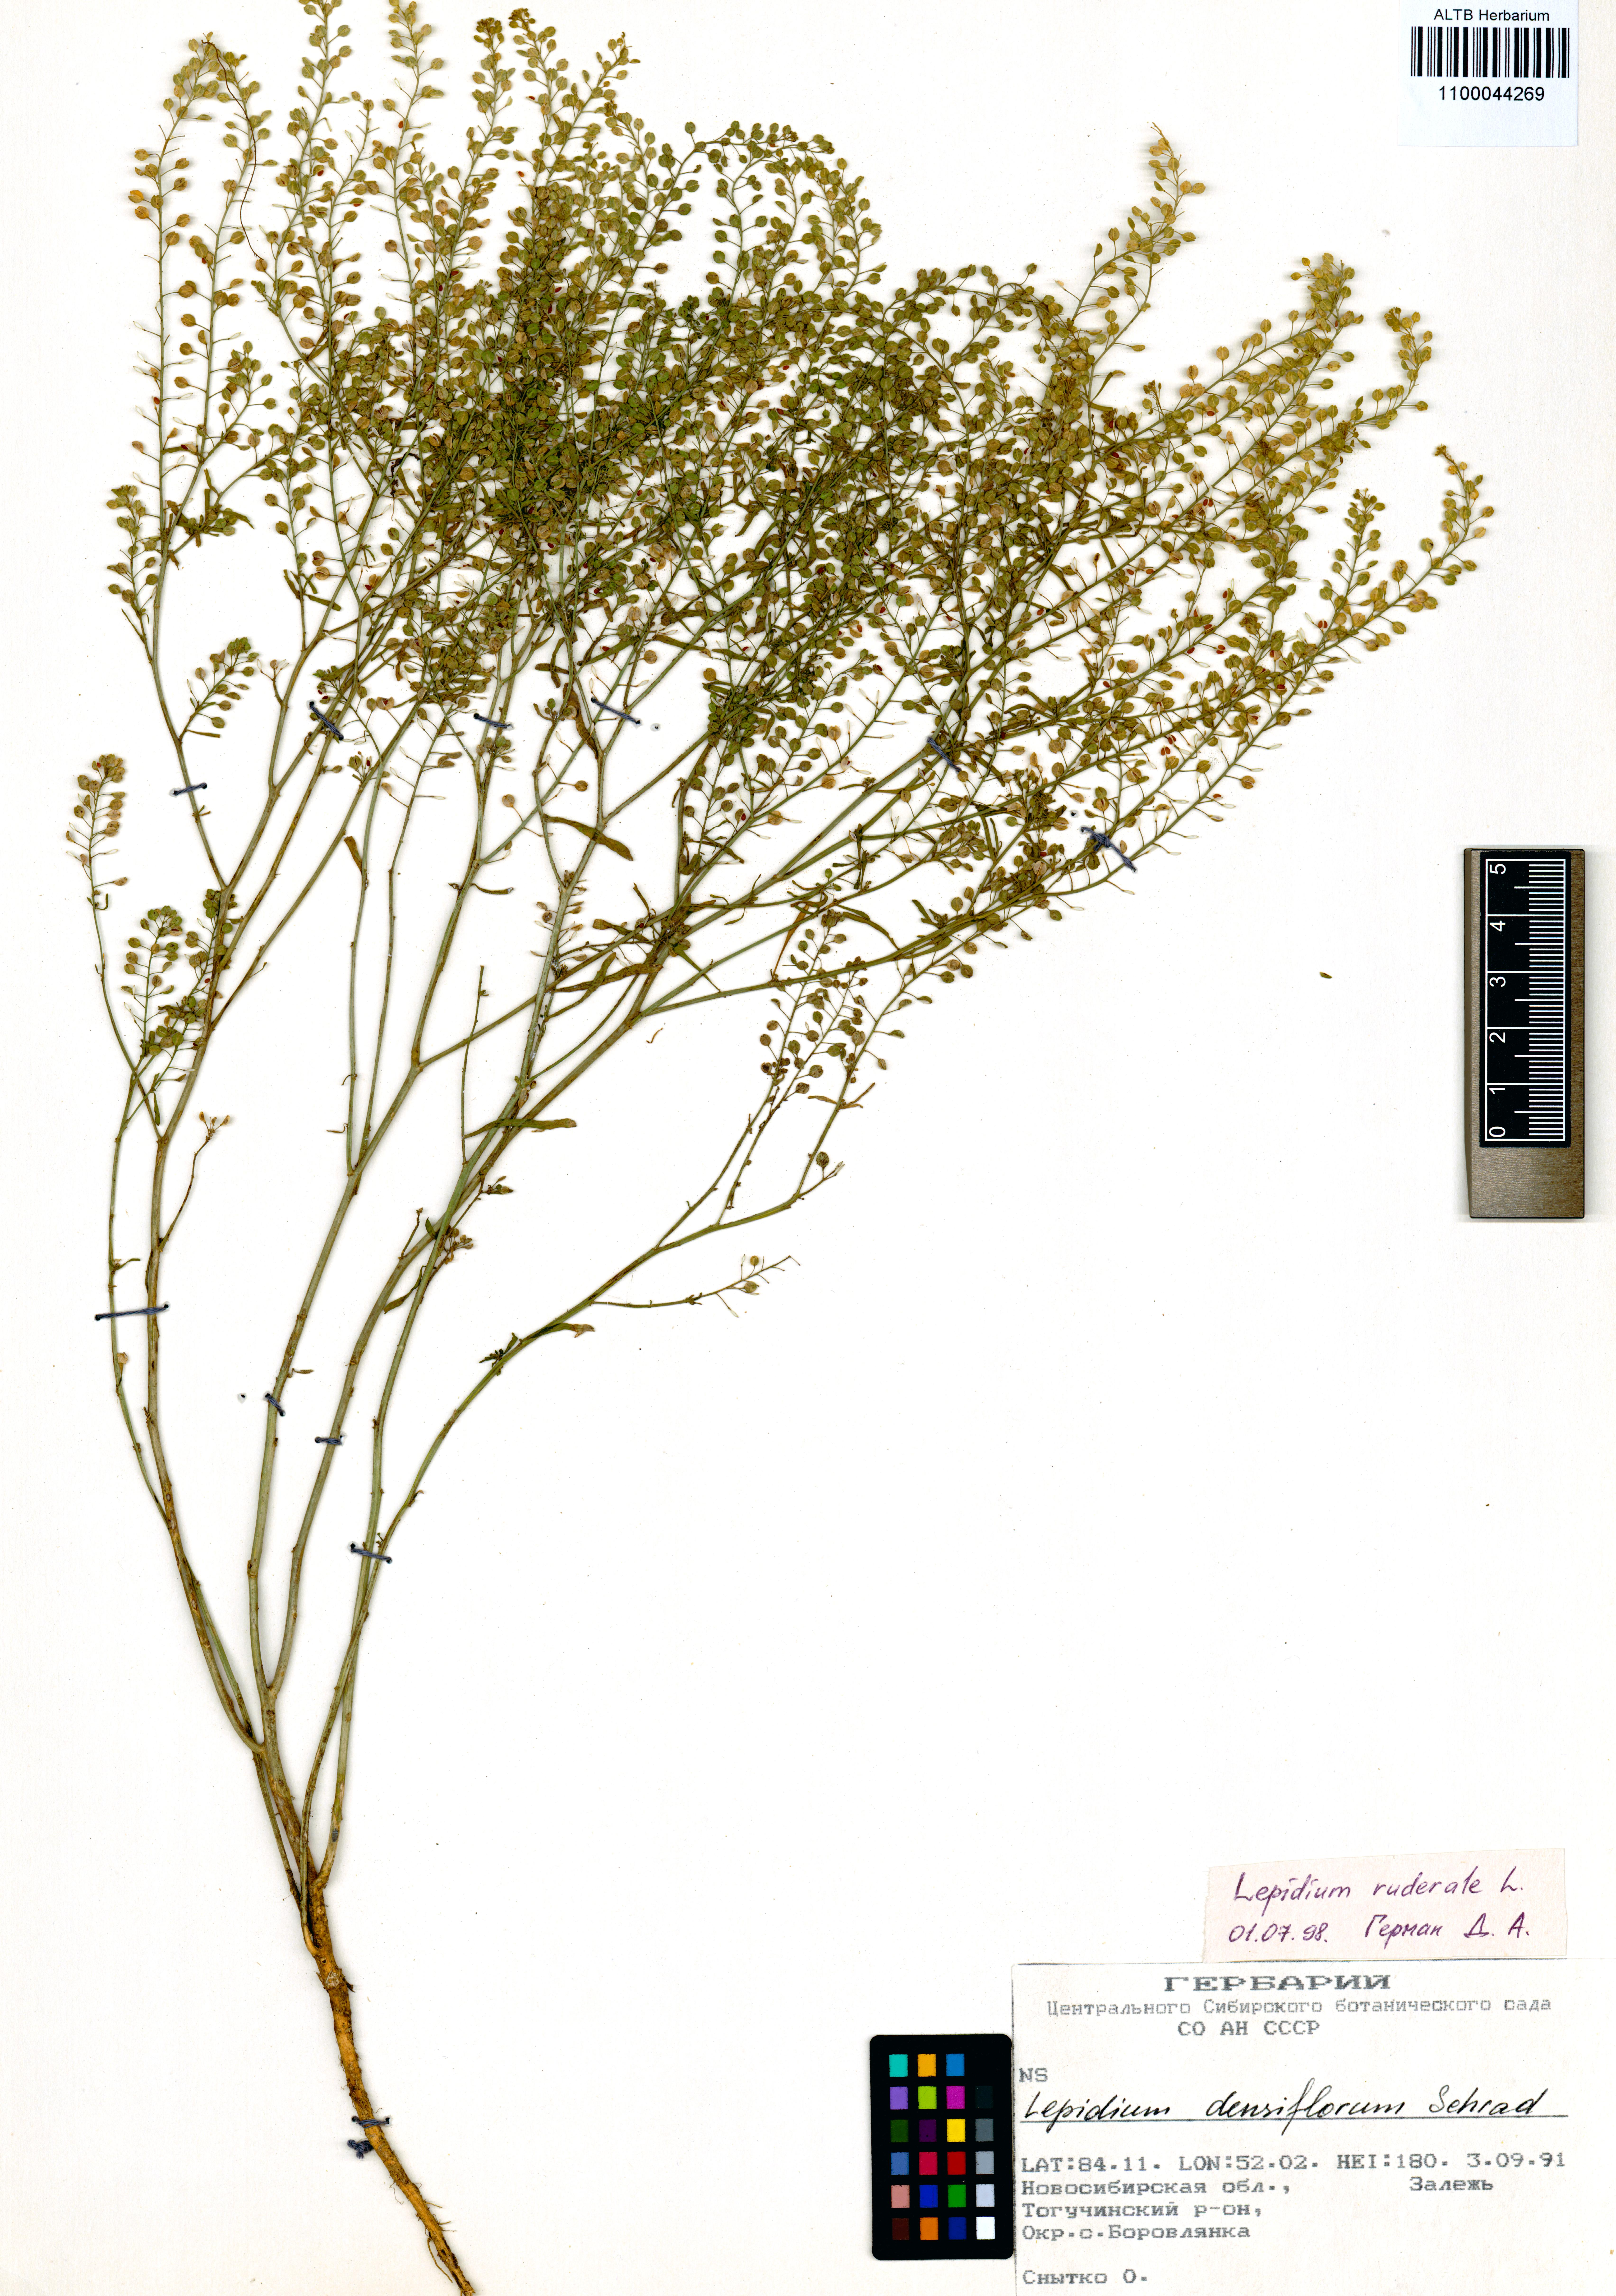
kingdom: Plantae
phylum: Tracheophyta
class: Magnoliopsida
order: Brassicales
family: Brassicaceae
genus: Lepidium
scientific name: Lepidium ruderale
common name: Narrow-leaved pepperwort
